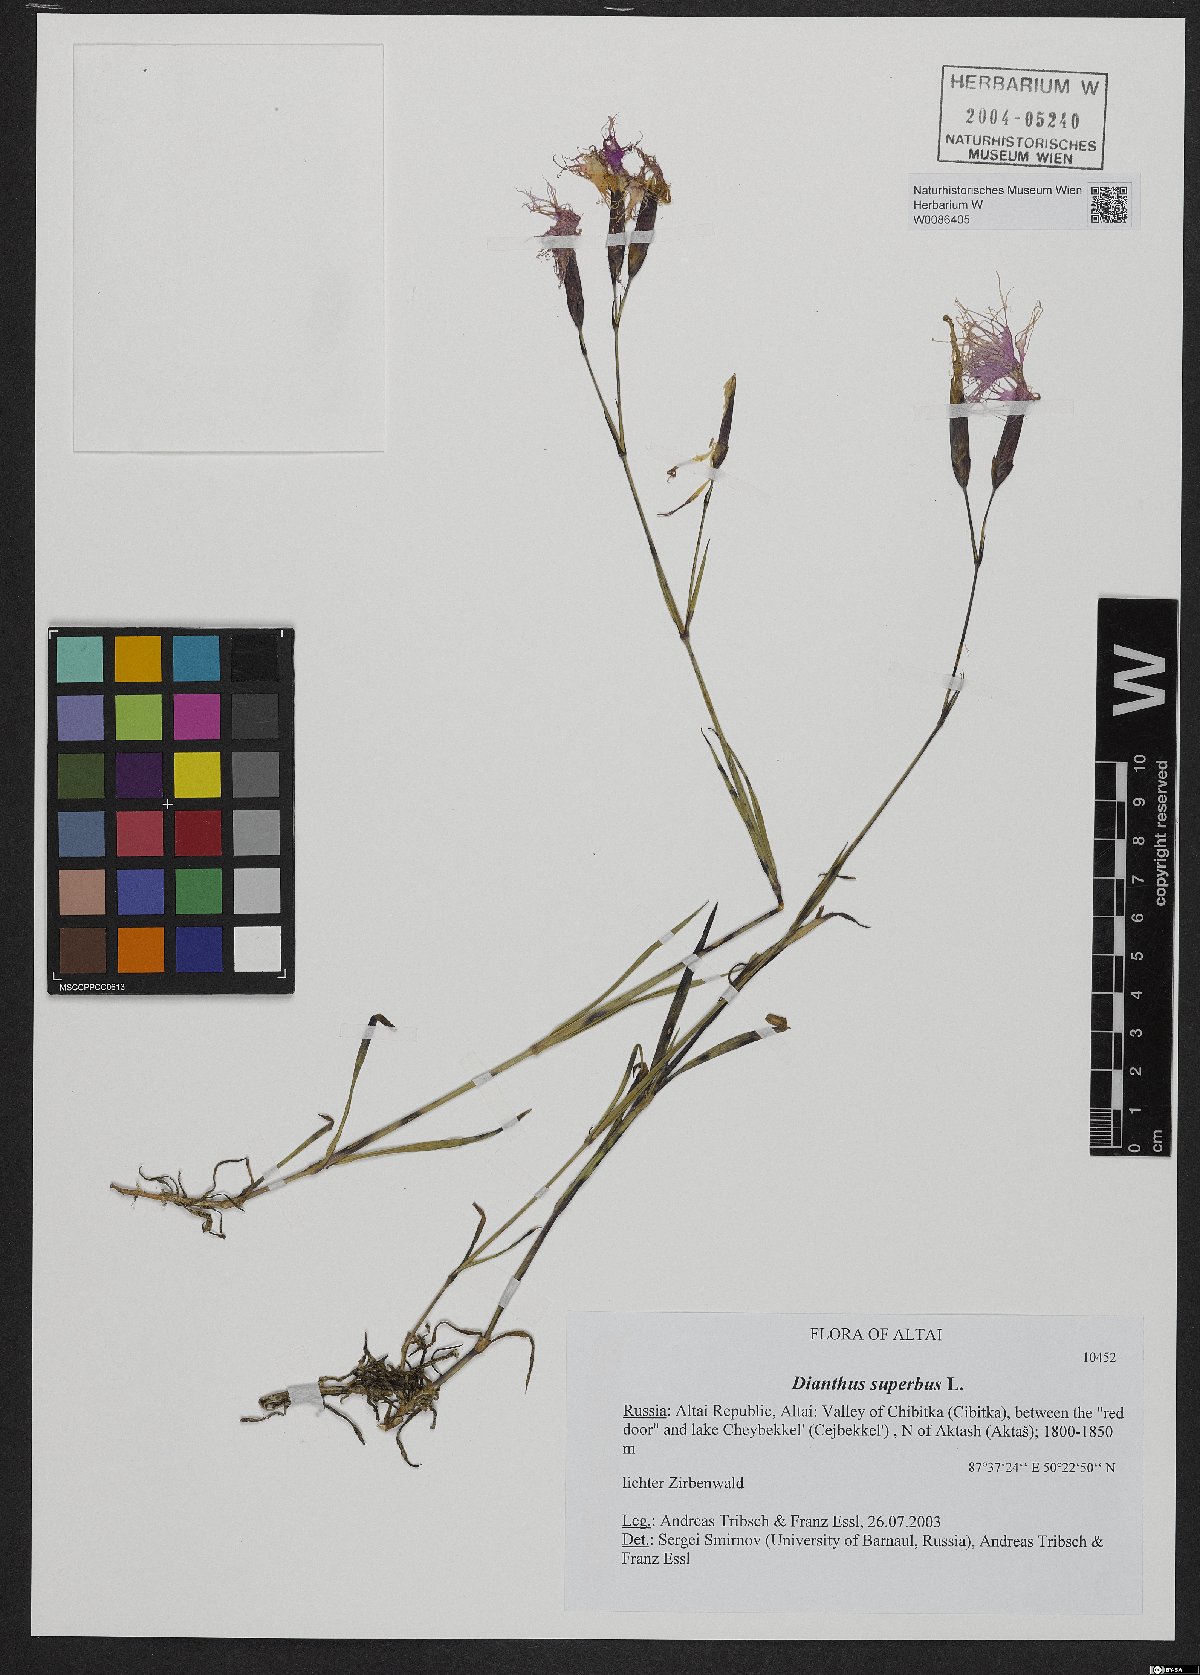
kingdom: Plantae
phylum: Tracheophyta
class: Magnoliopsida
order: Caryophyllales
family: Caryophyllaceae
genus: Dianthus
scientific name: Dianthus superbus
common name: Fringed pink
